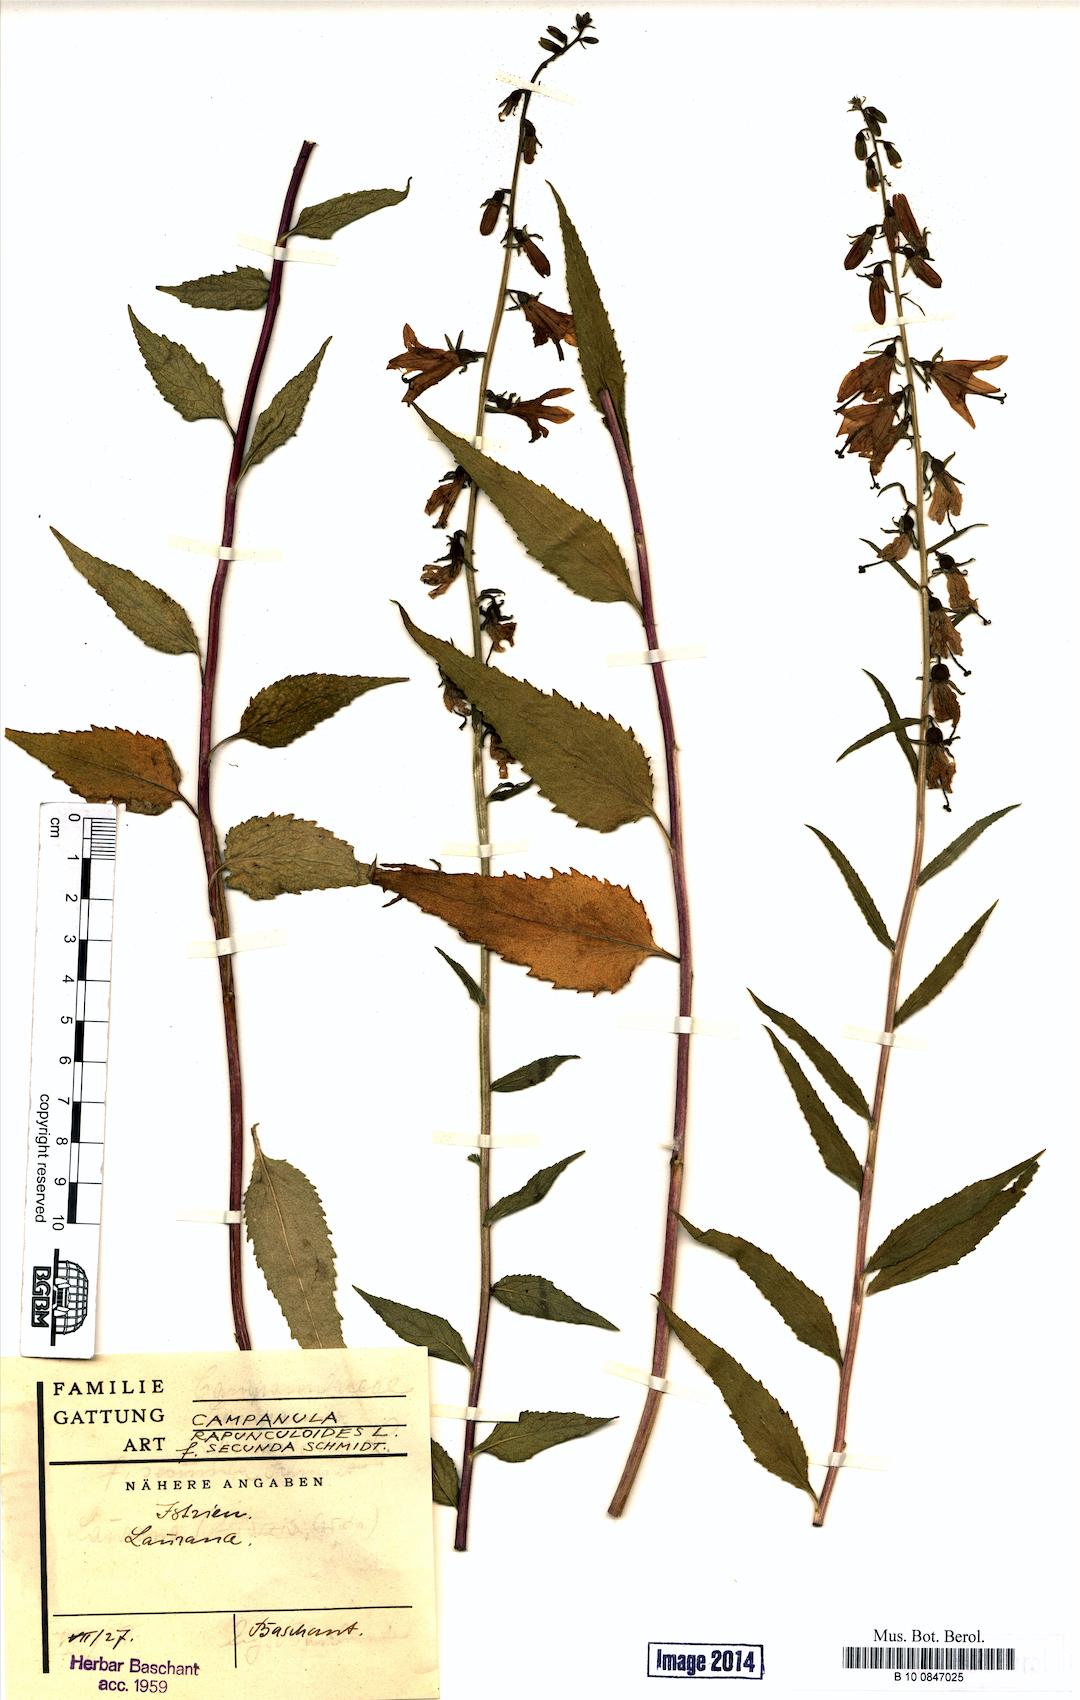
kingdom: Plantae
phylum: Tracheophyta
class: Magnoliopsida
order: Asterales
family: Campanulaceae
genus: Campanula
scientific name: Campanula rapunculoides
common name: Creeping bellflower
